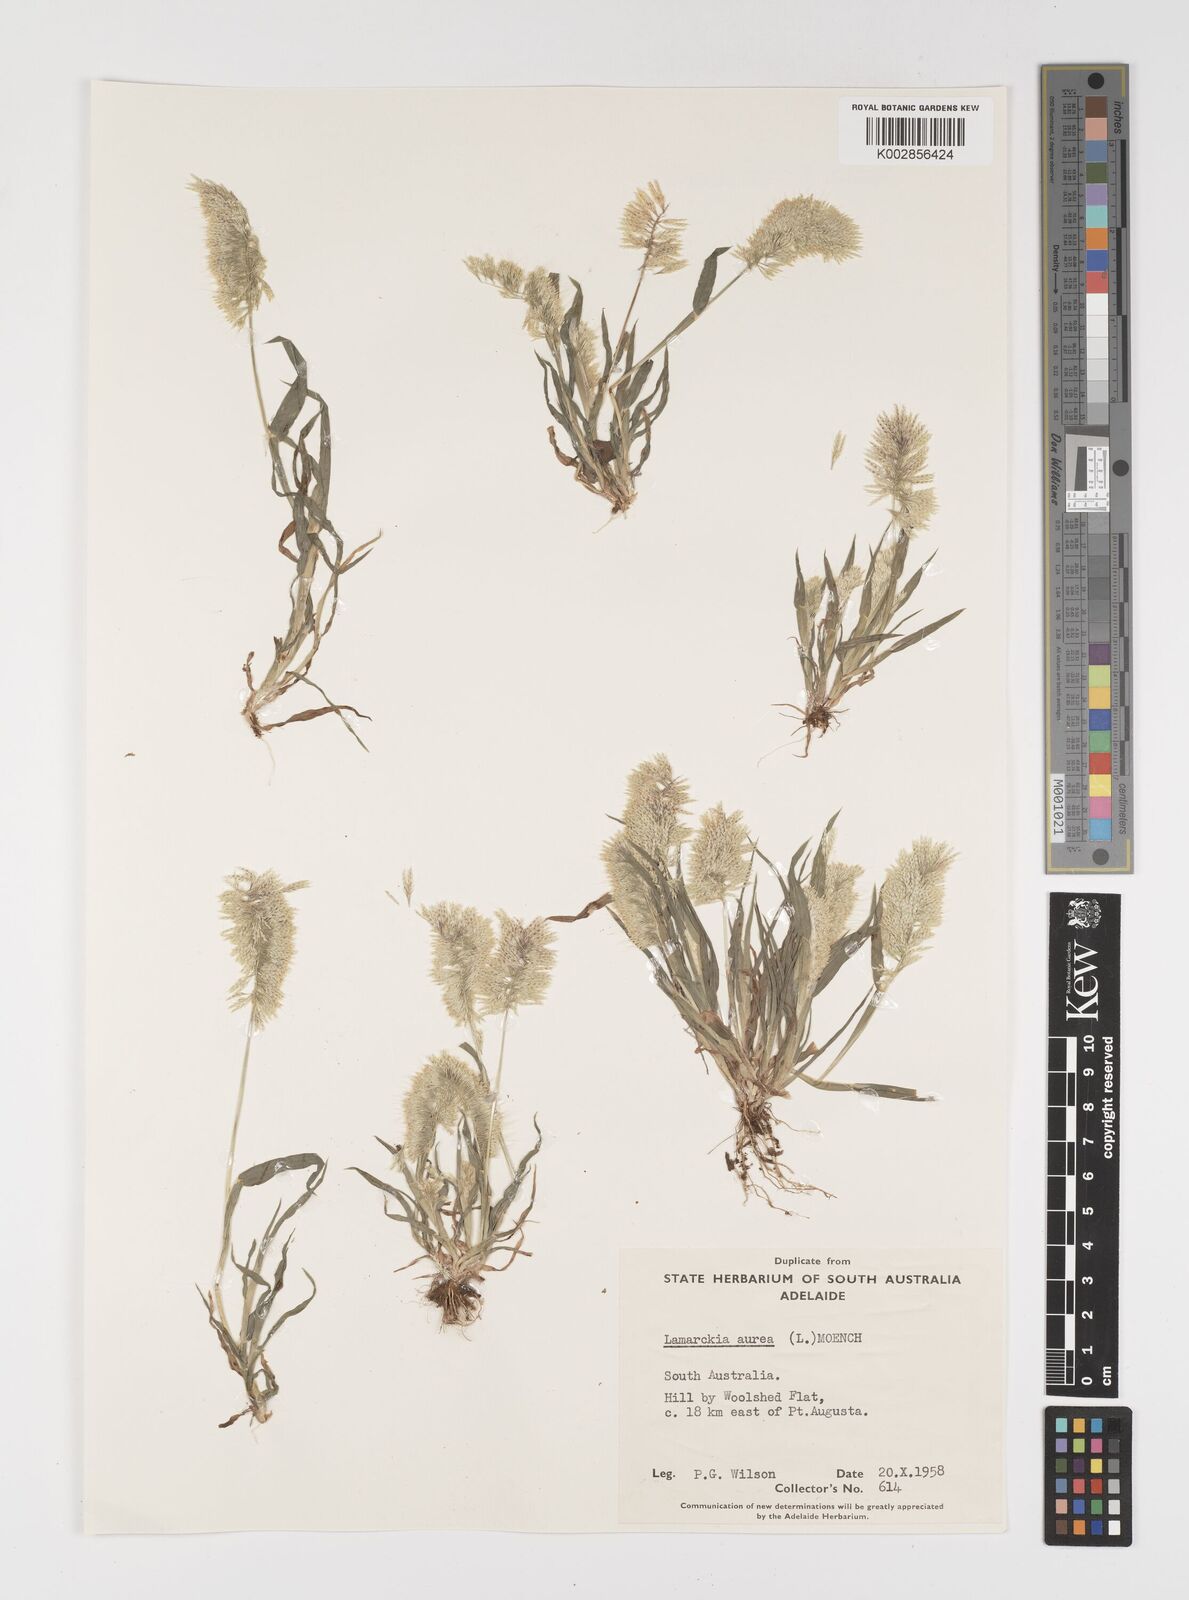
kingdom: Plantae
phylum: Tracheophyta
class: Liliopsida
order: Poales
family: Poaceae
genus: Lamarckia
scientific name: Lamarckia aurea
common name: Golden dog's-tail
